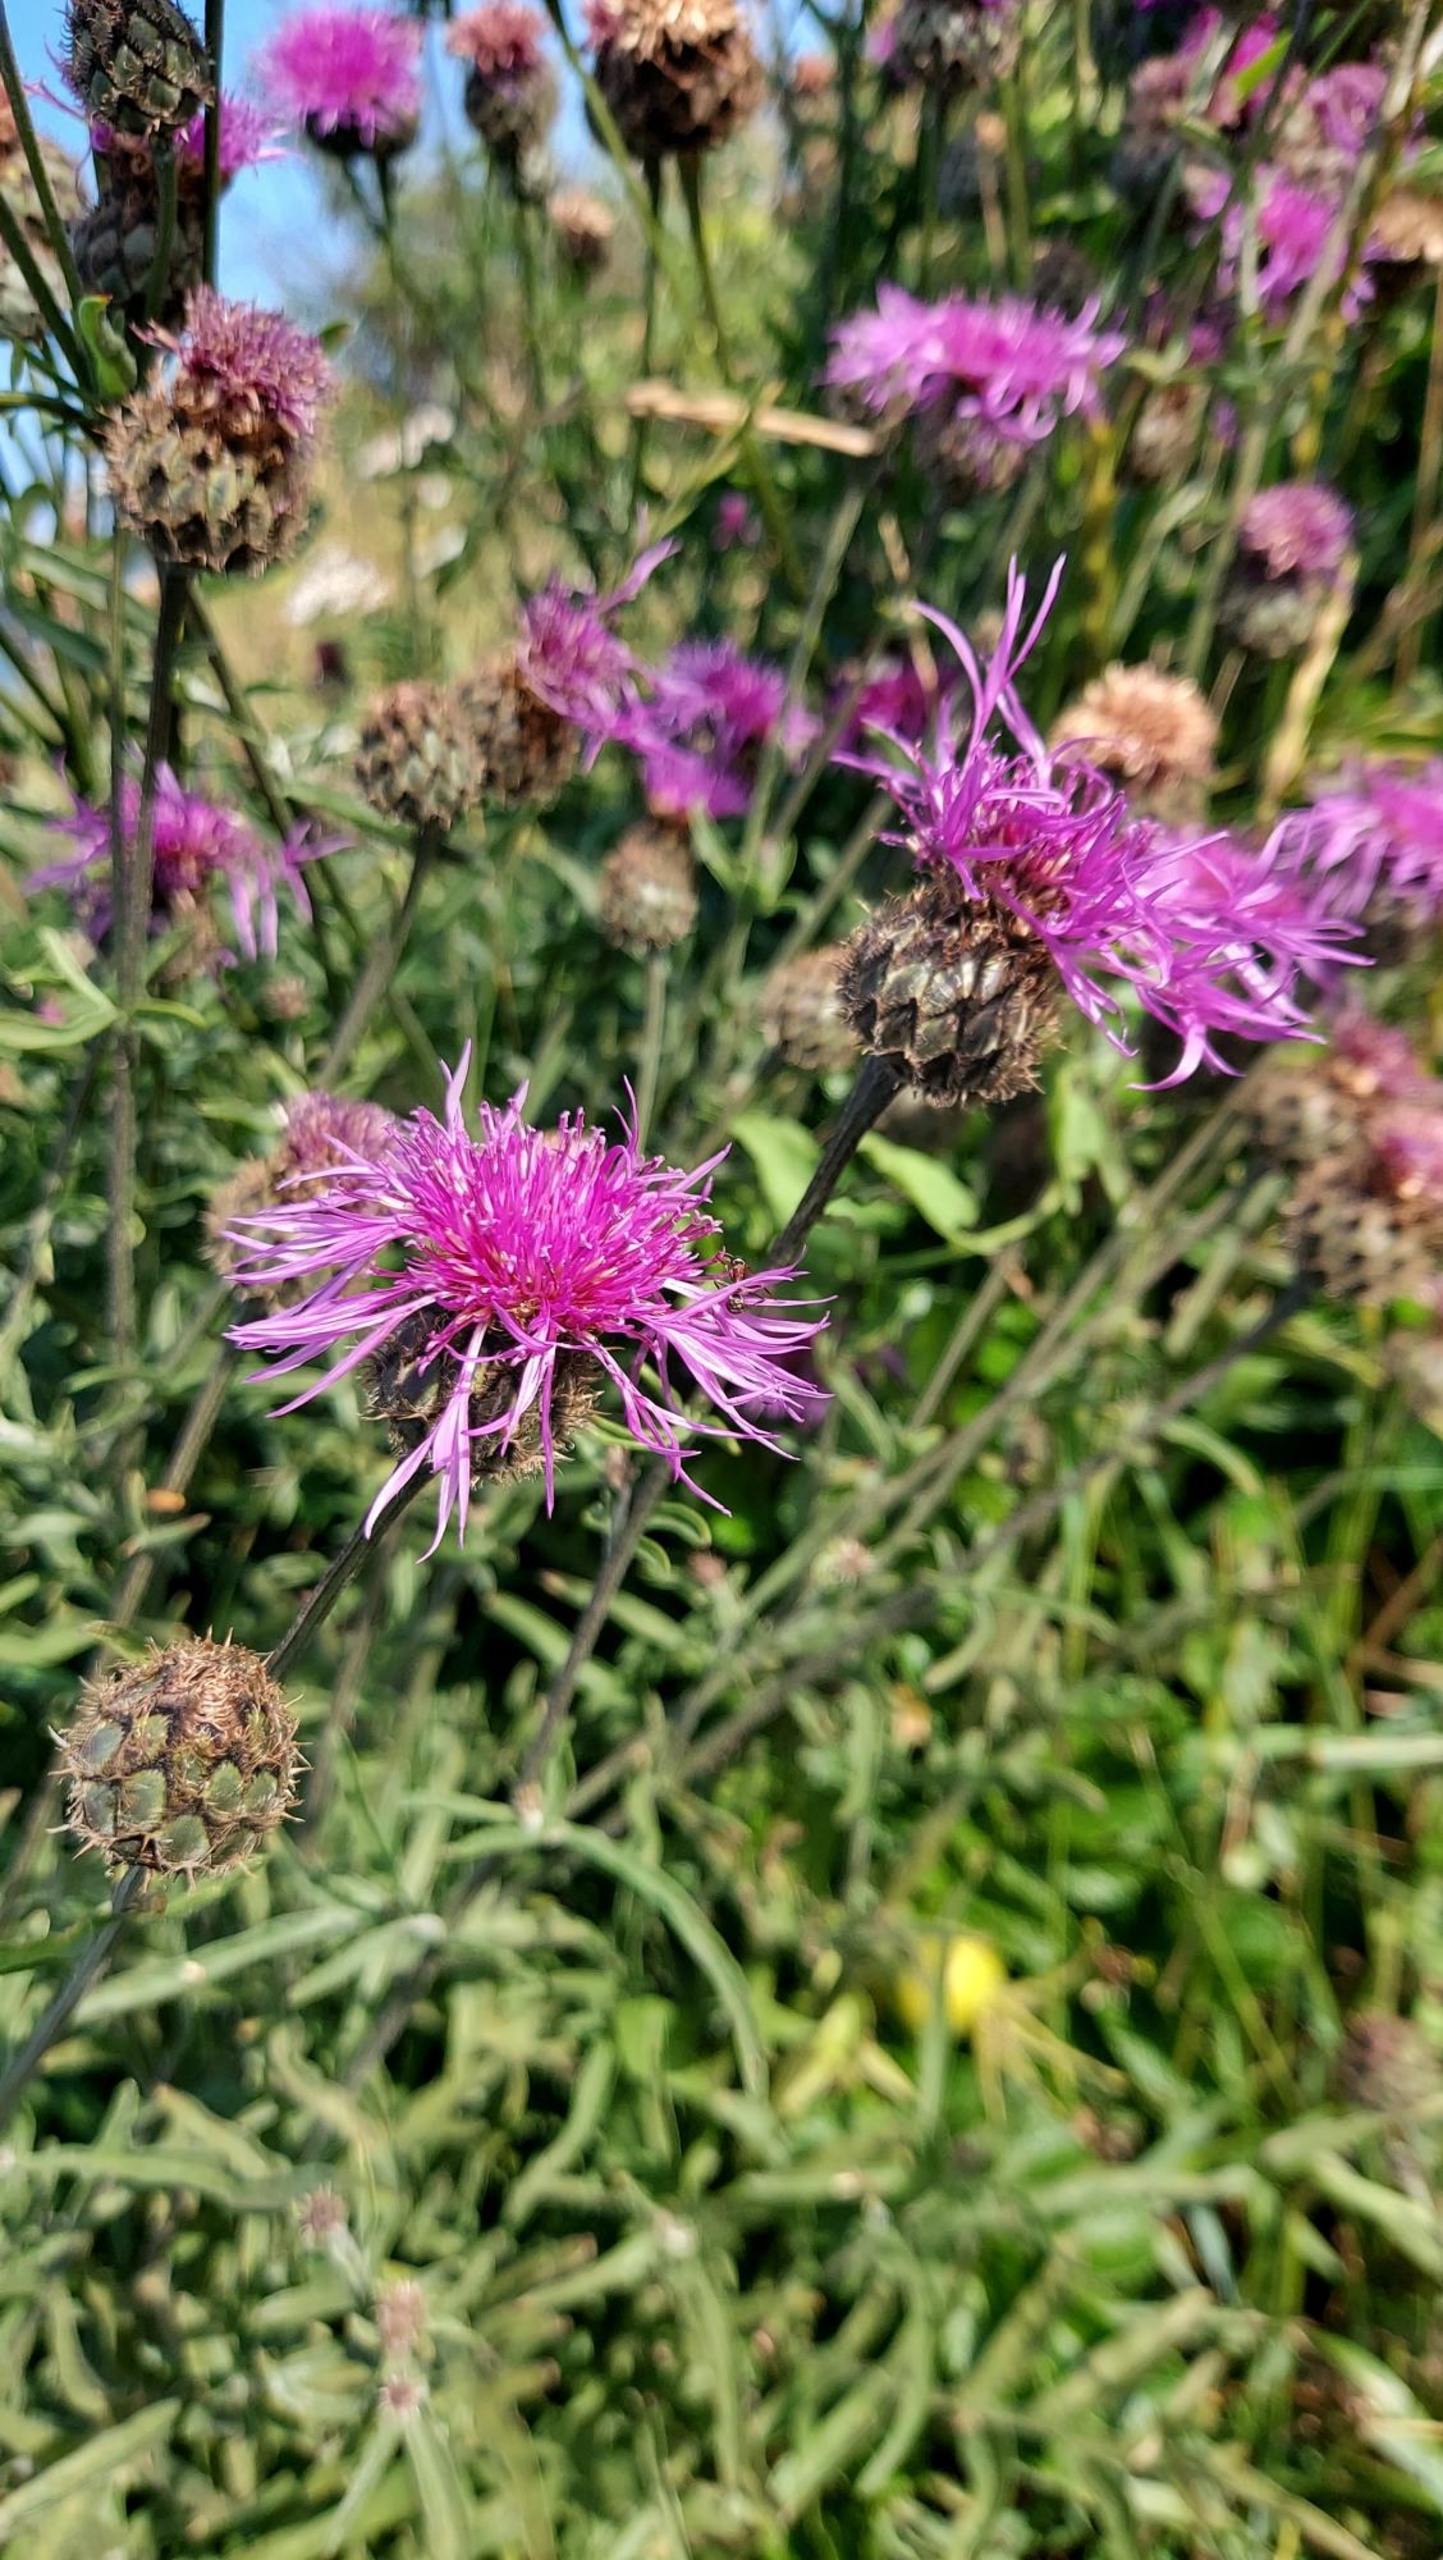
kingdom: Plantae
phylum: Tracheophyta
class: Magnoliopsida
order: Asterales
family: Asteraceae
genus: Centaurea
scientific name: Centaurea scabiosa
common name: Stor knopurt
